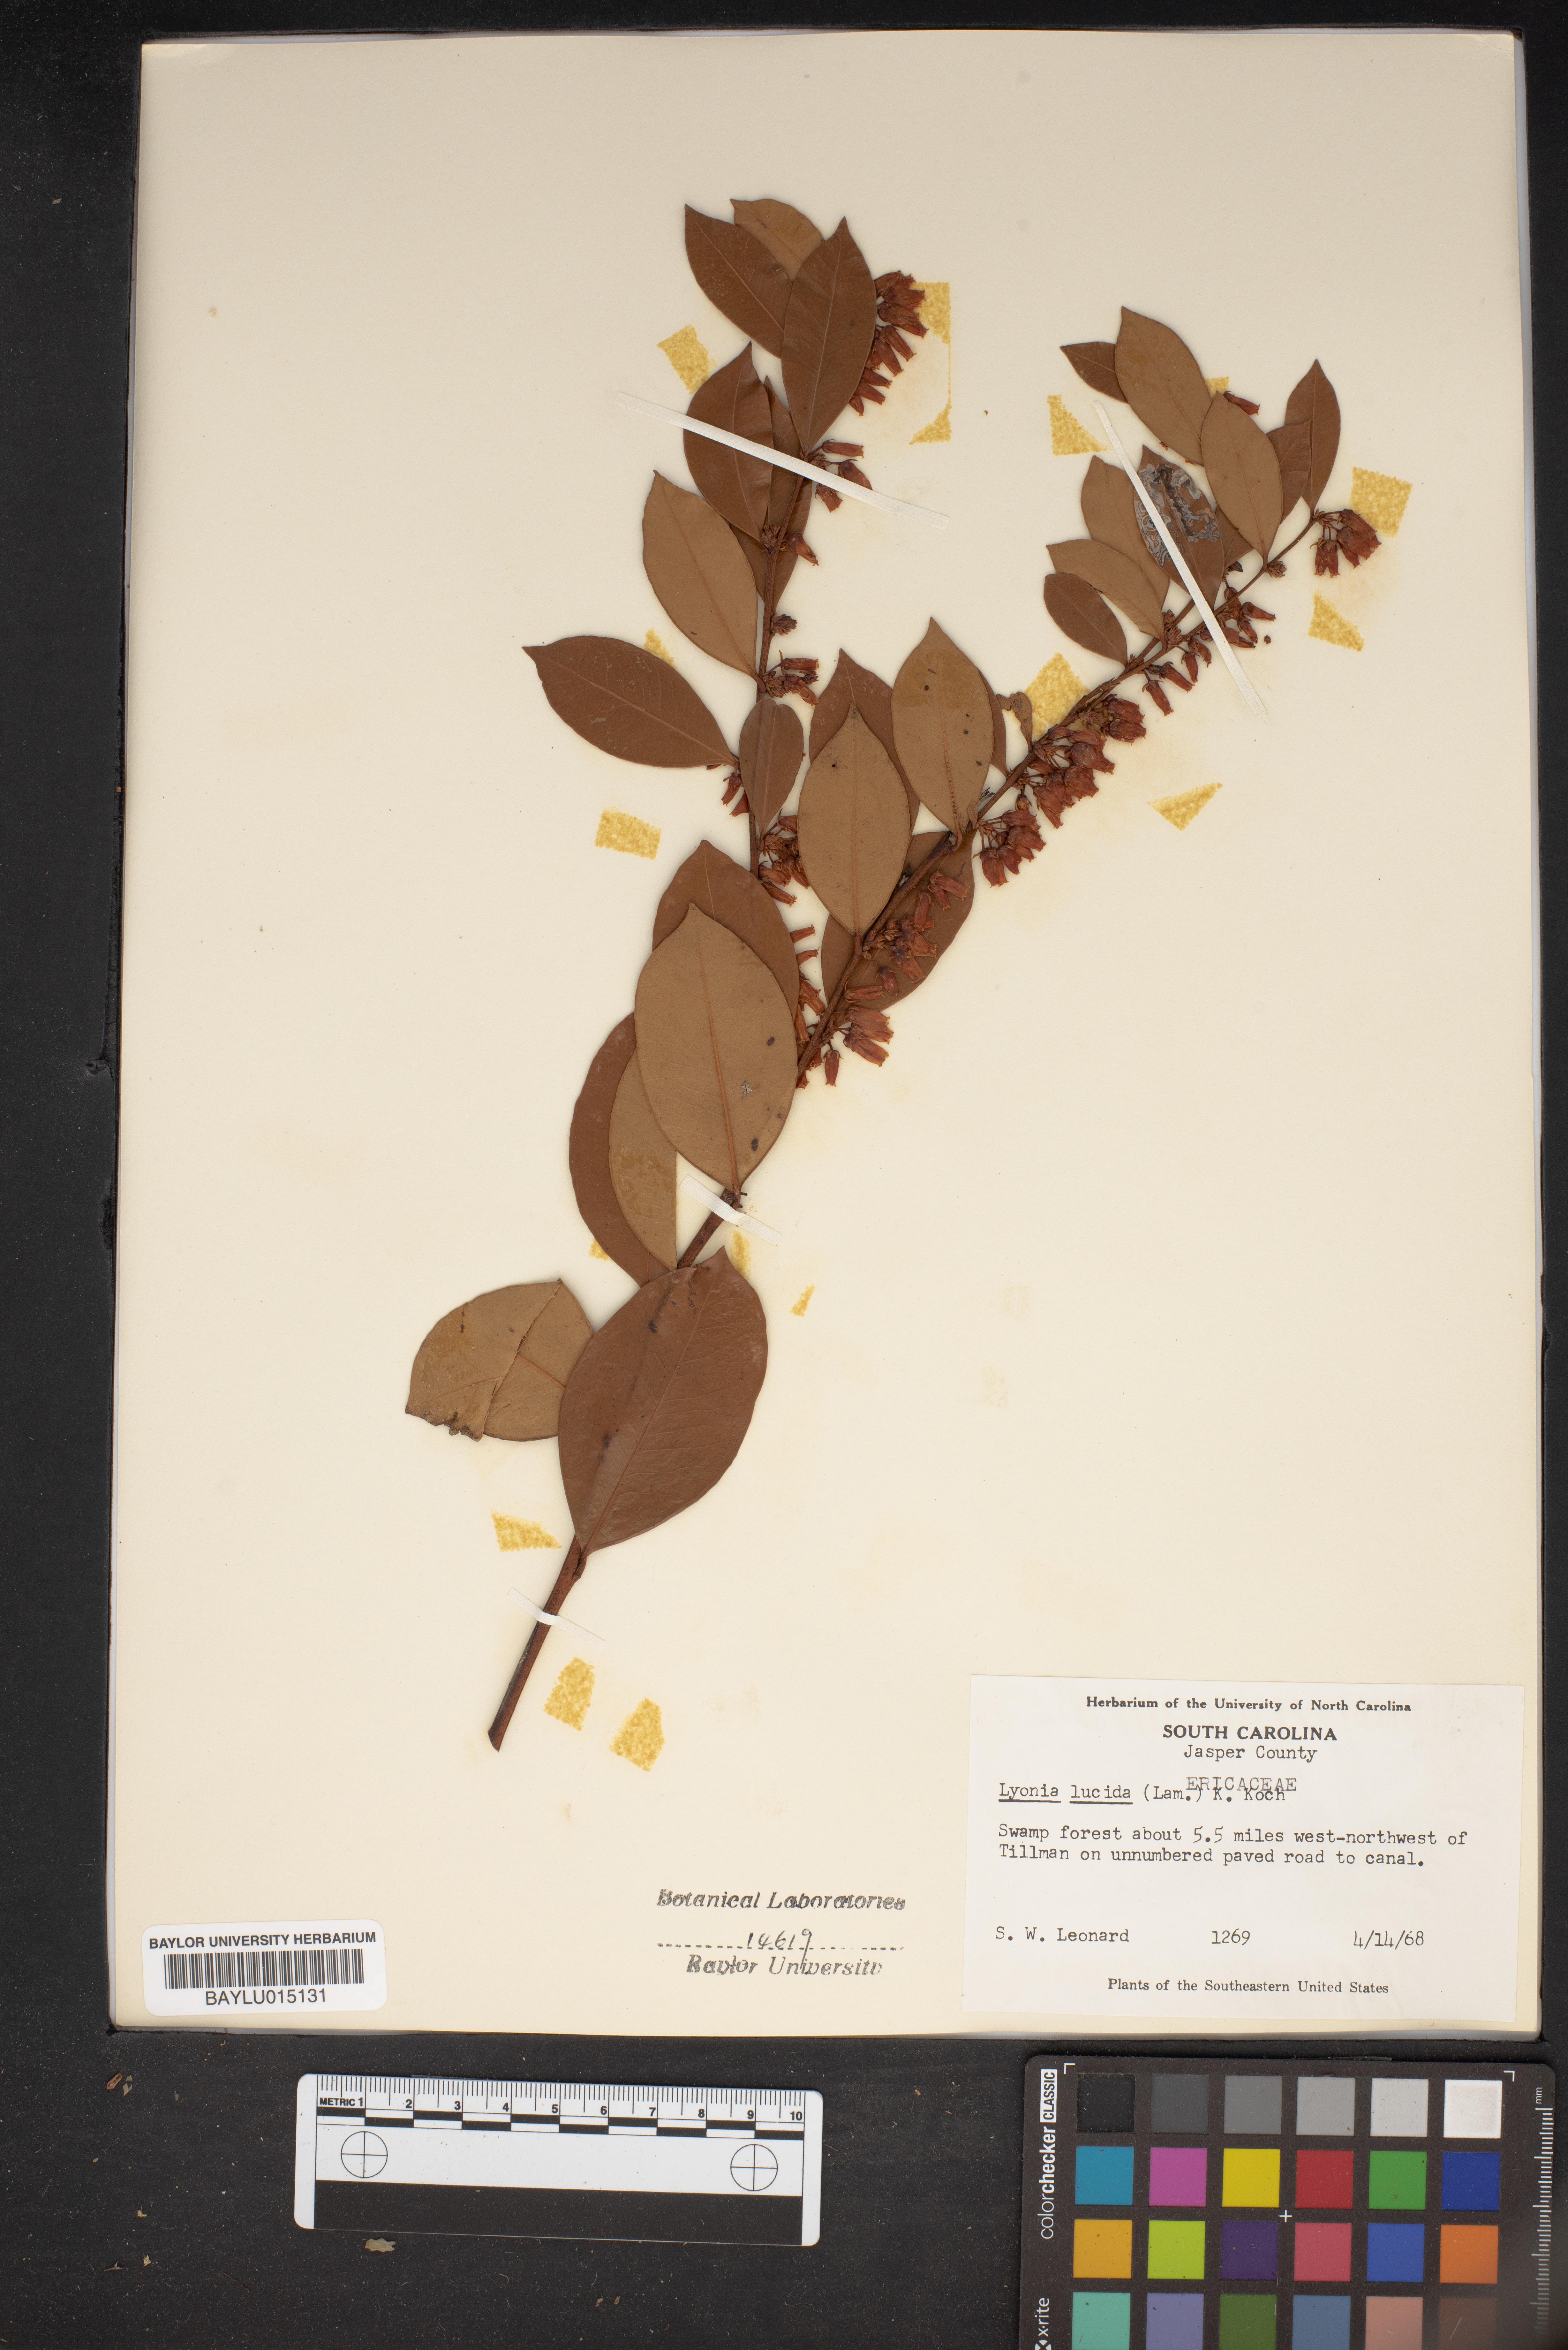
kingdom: Plantae
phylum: Tracheophyta
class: Magnoliopsida
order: Ericales
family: Ericaceae
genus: Lyonia
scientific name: Lyonia lucida
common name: Fetterbush
